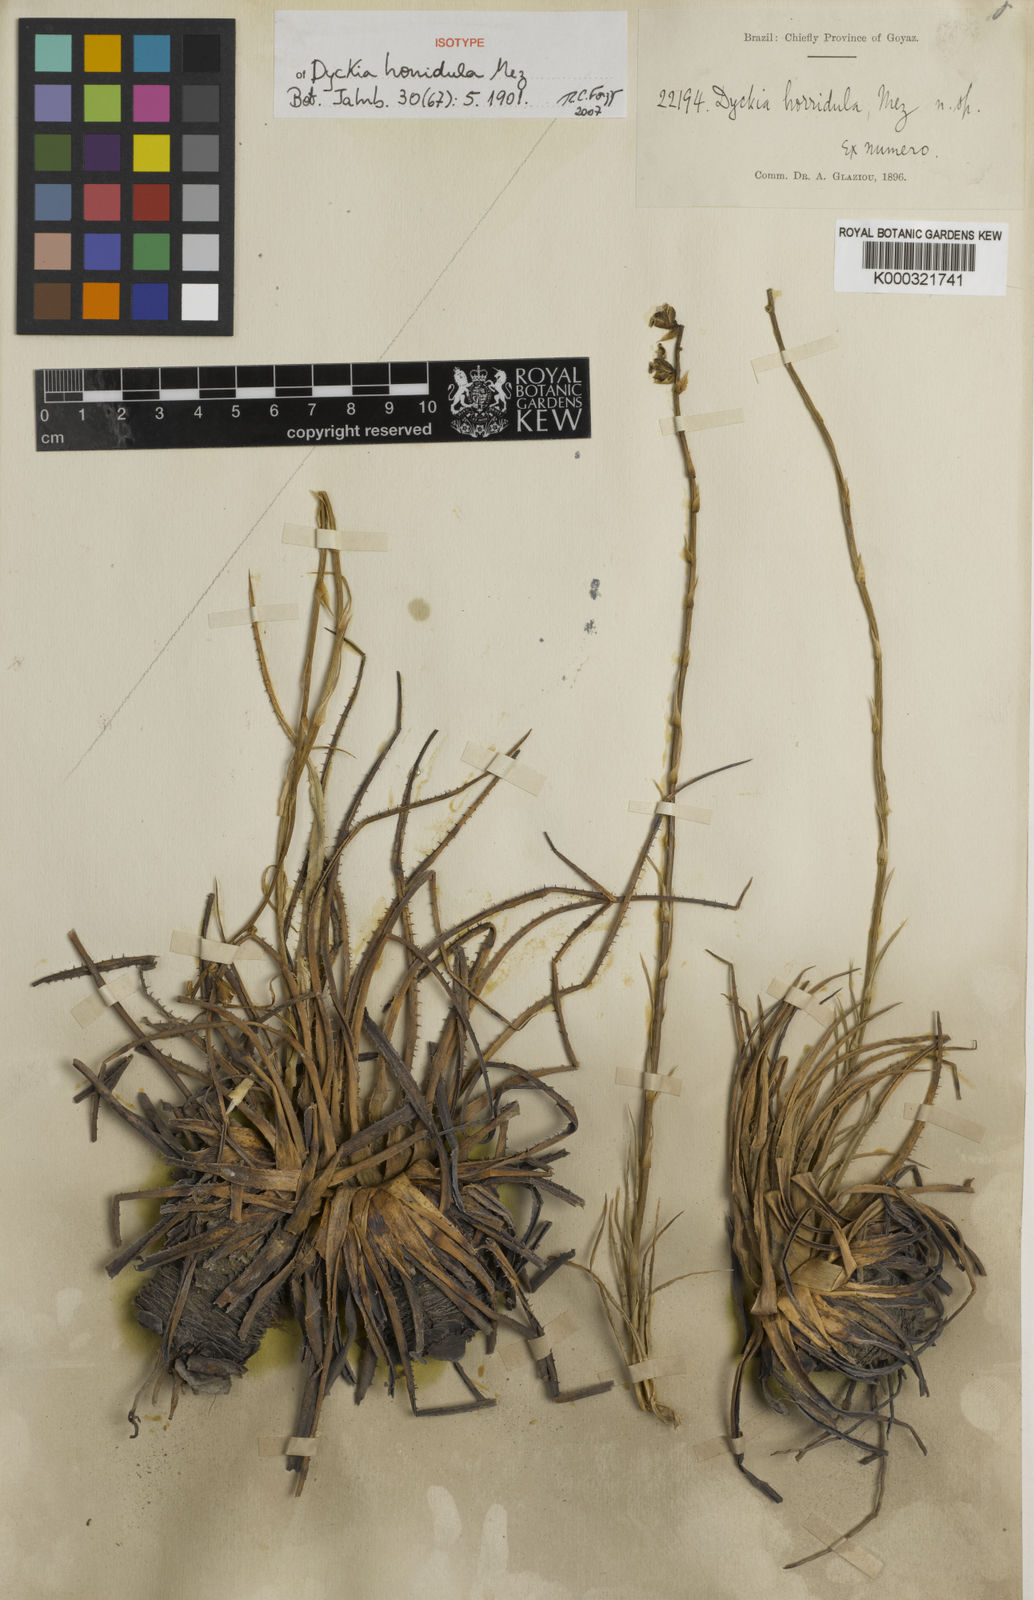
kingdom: Plantae
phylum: Tracheophyta
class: Liliopsida
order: Poales
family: Bromeliaceae
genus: Dyckia
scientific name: Dyckia horridula
